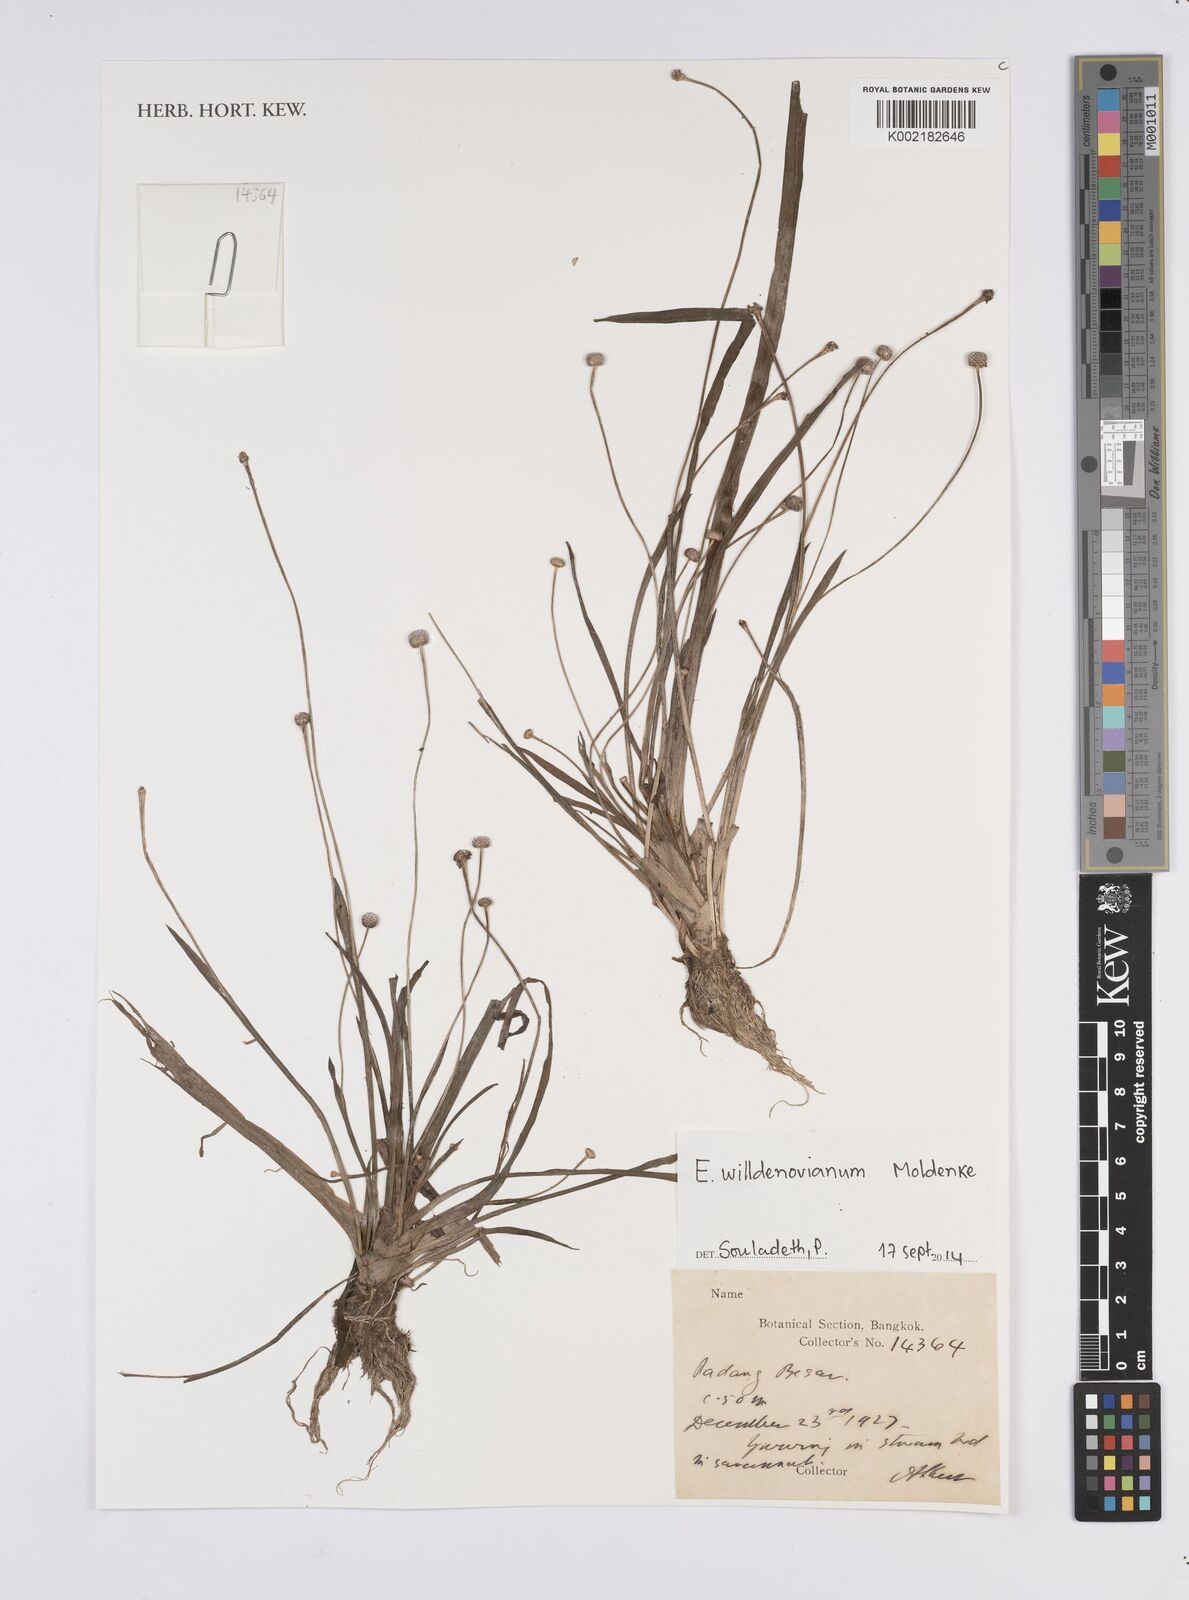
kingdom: Plantae
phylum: Tracheophyta
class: Liliopsida
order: Poales
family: Eriocaulaceae
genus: Eriocaulon
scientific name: Eriocaulon willdenovianum
